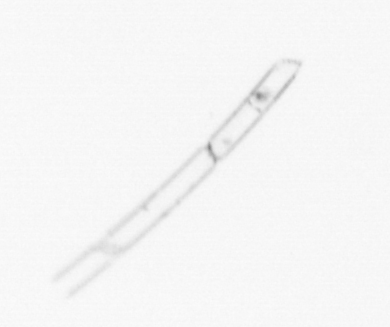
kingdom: Chromista
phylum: Ochrophyta
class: Bacillariophyceae
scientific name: Bacillariophyceae
